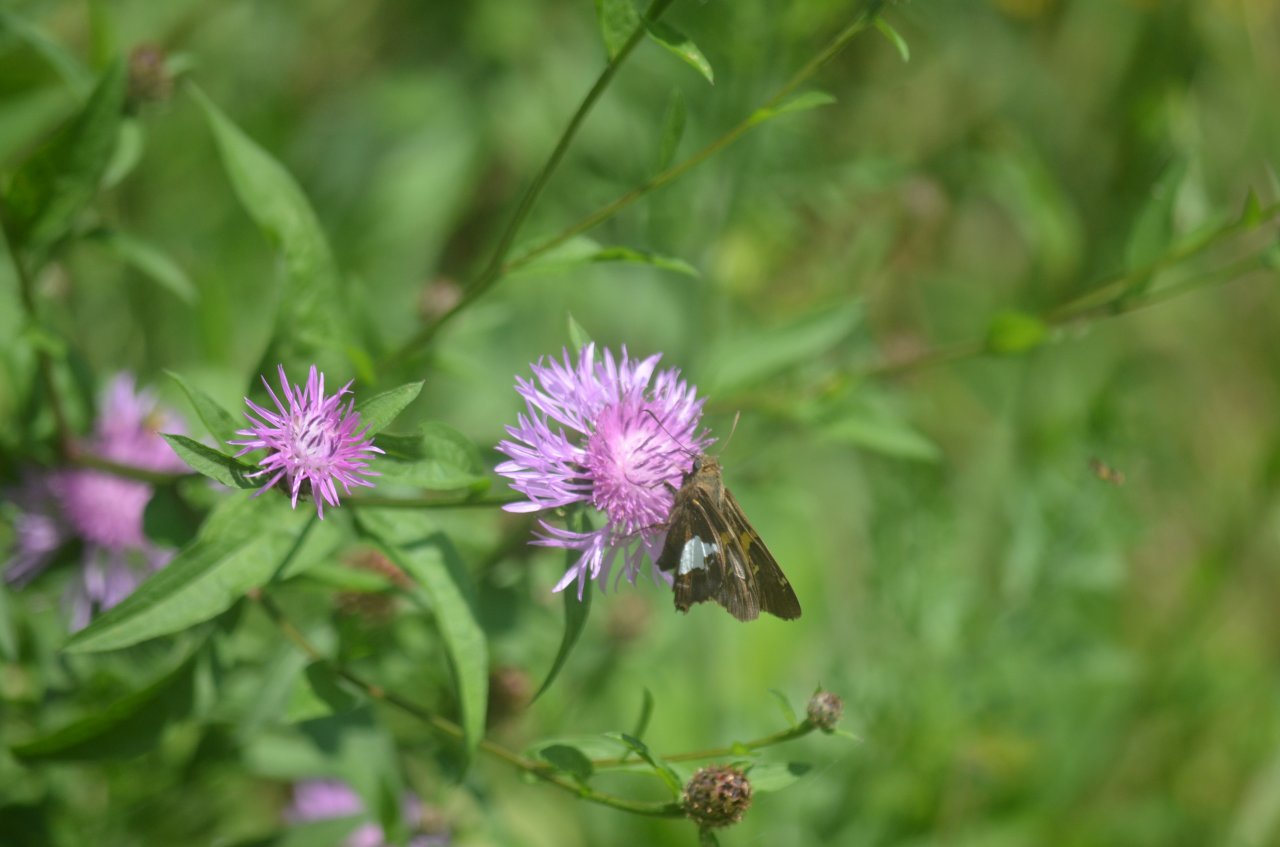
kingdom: Animalia
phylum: Arthropoda
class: Insecta
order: Lepidoptera
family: Hesperiidae
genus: Epargyreus
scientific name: Epargyreus clarus
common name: Silver-spotted Skipper
